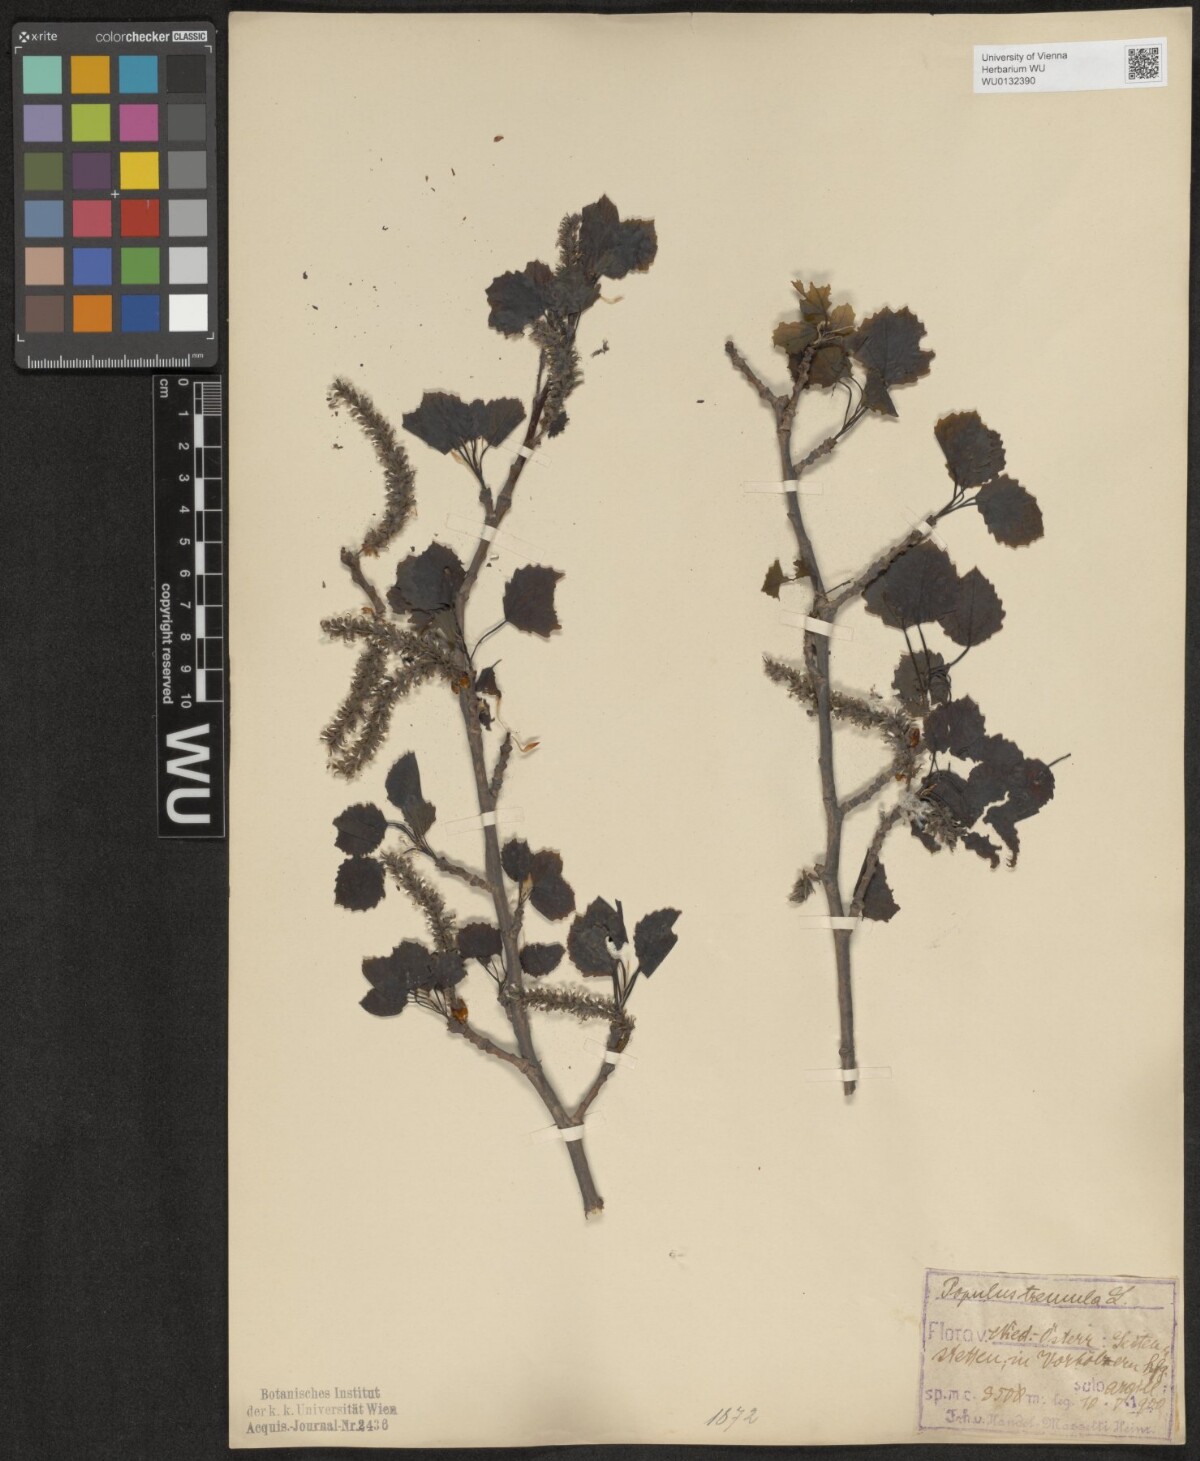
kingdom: Plantae
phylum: Tracheophyta
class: Magnoliopsida
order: Malpighiales
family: Salicaceae
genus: Populus
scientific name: Populus tremula
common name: European aspen
